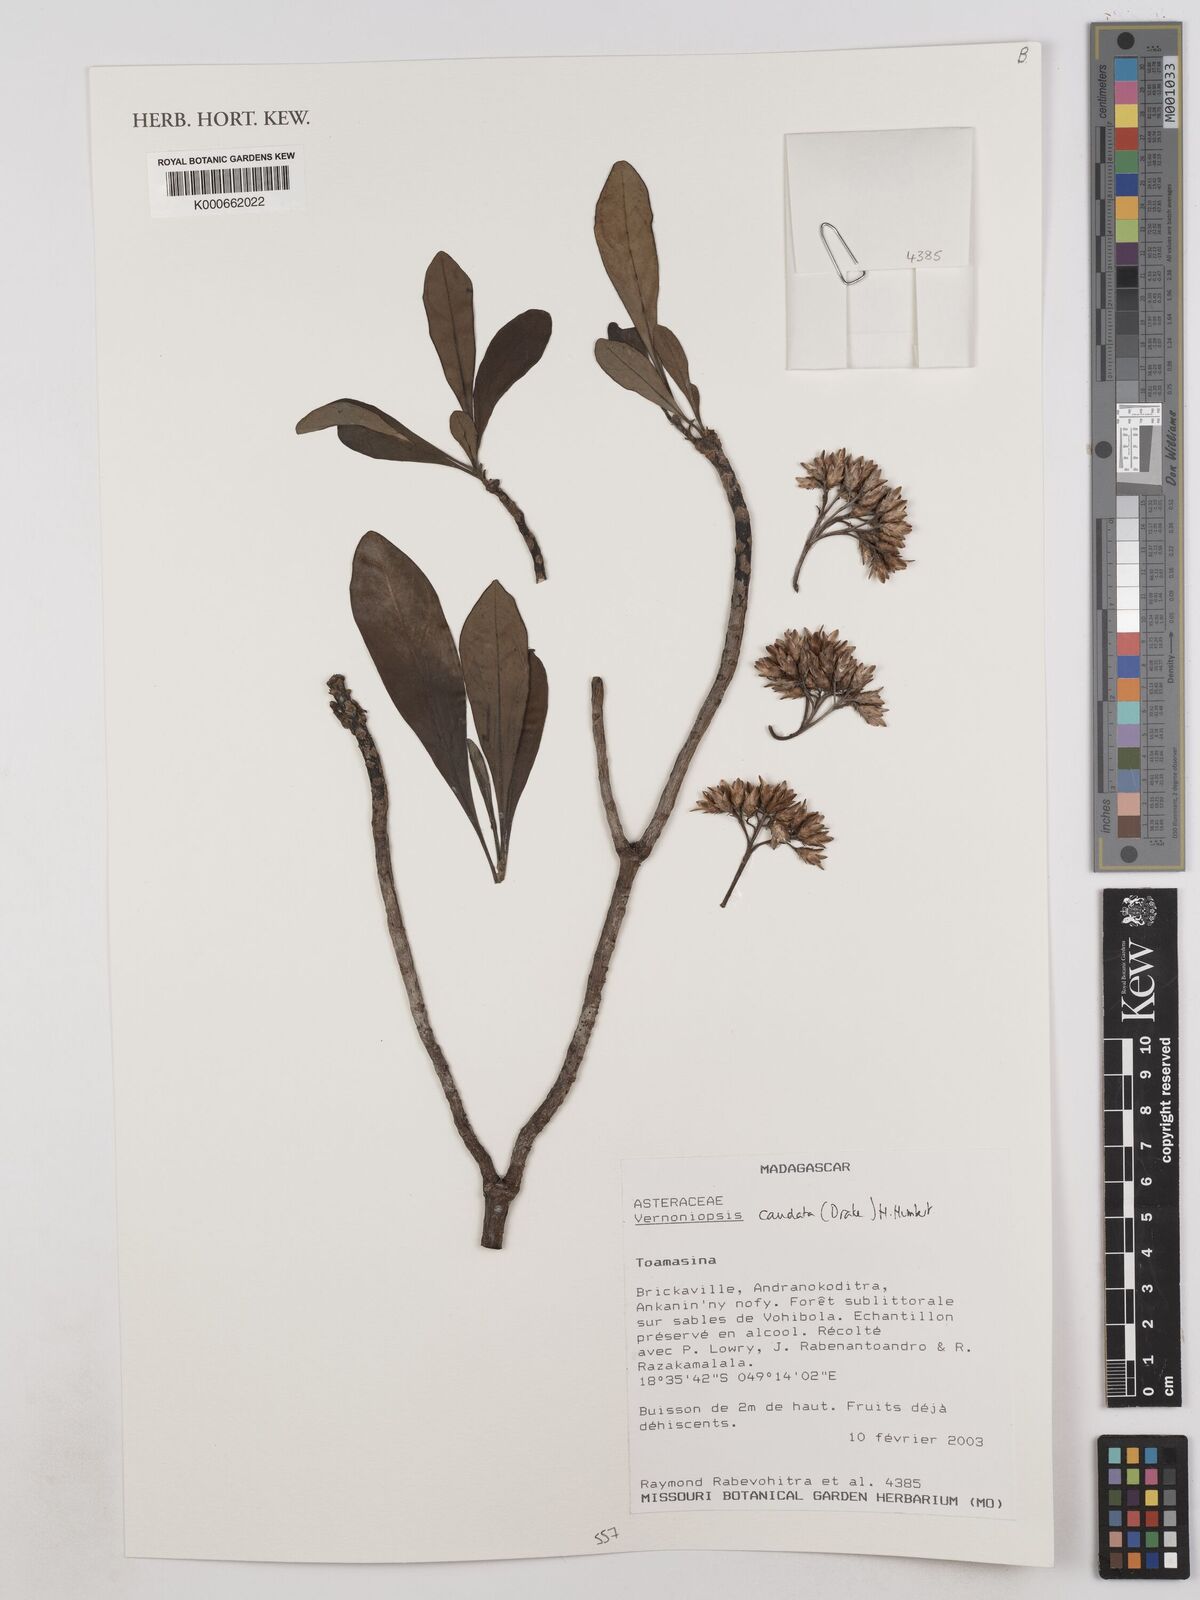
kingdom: Plantae
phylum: Tracheophyta
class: Magnoliopsida
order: Asterales
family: Asteraceae
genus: Vernoniopsis
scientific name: Vernoniopsis caudata
